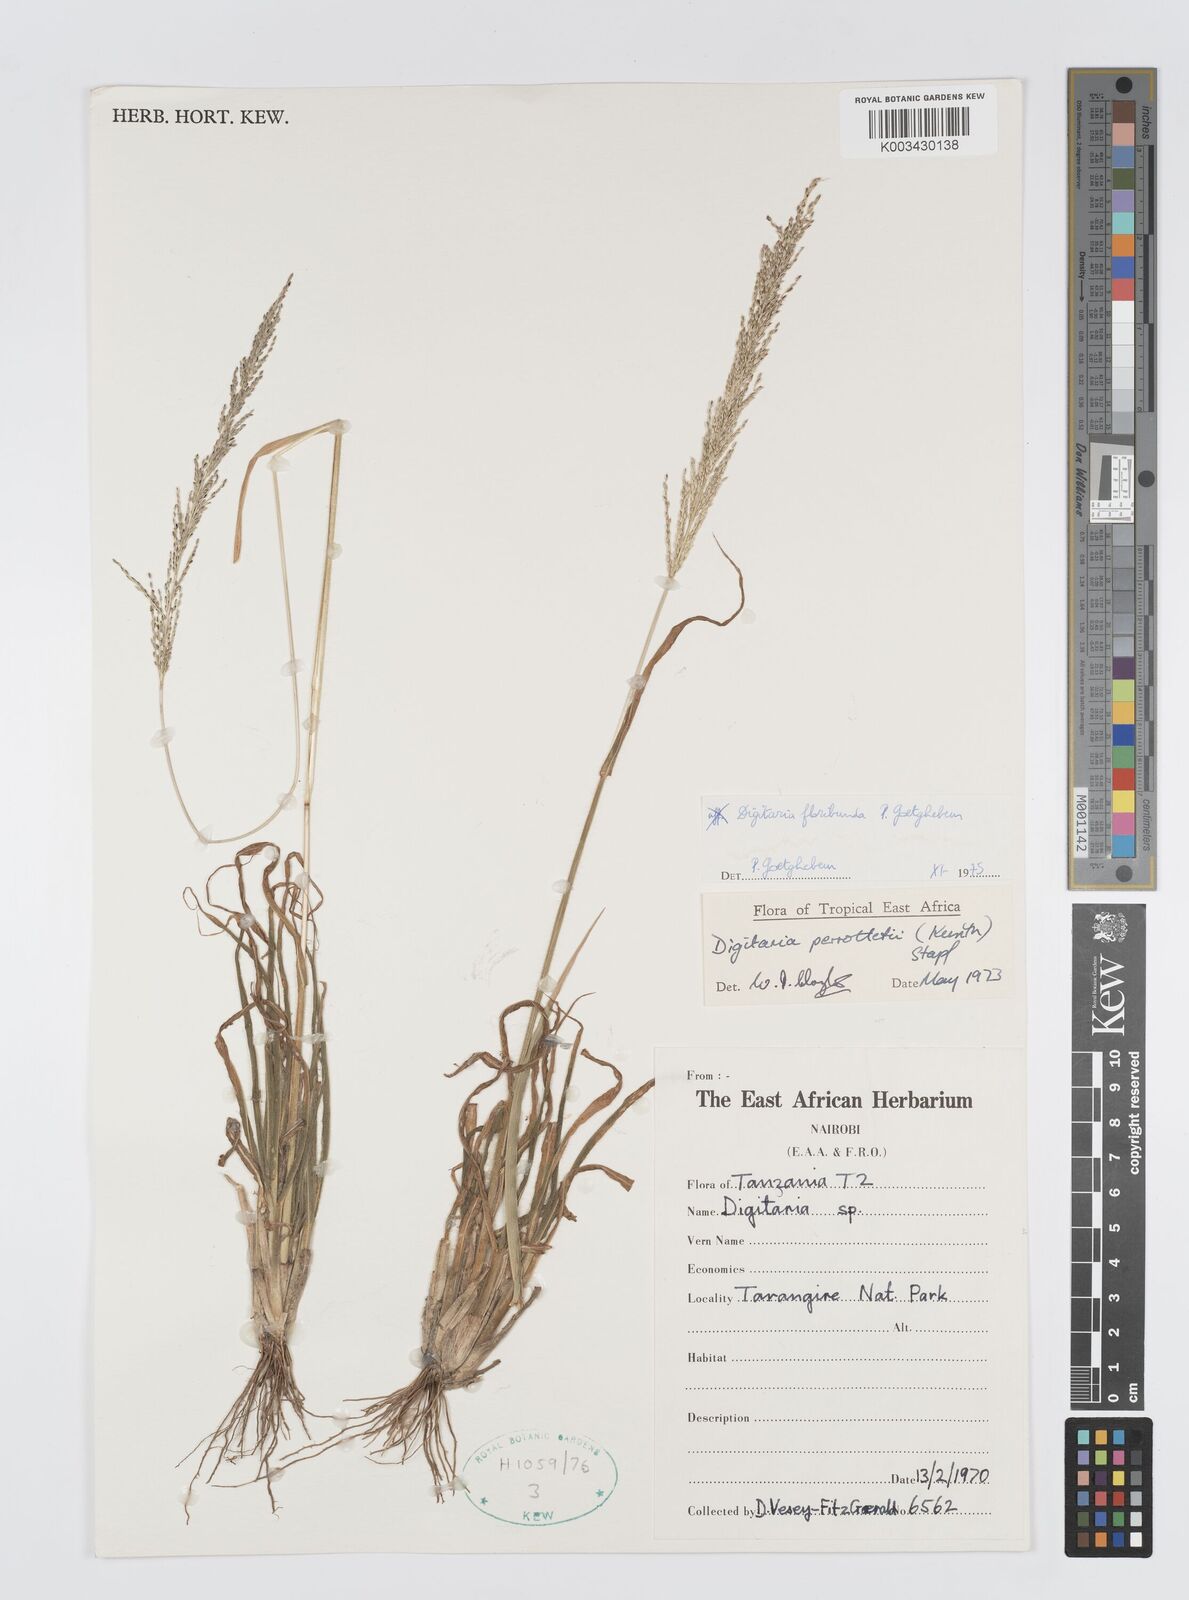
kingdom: Plantae
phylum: Tracheophyta
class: Liliopsida
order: Poales
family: Poaceae
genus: Digitaria
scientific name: Digitaria perrottetii
